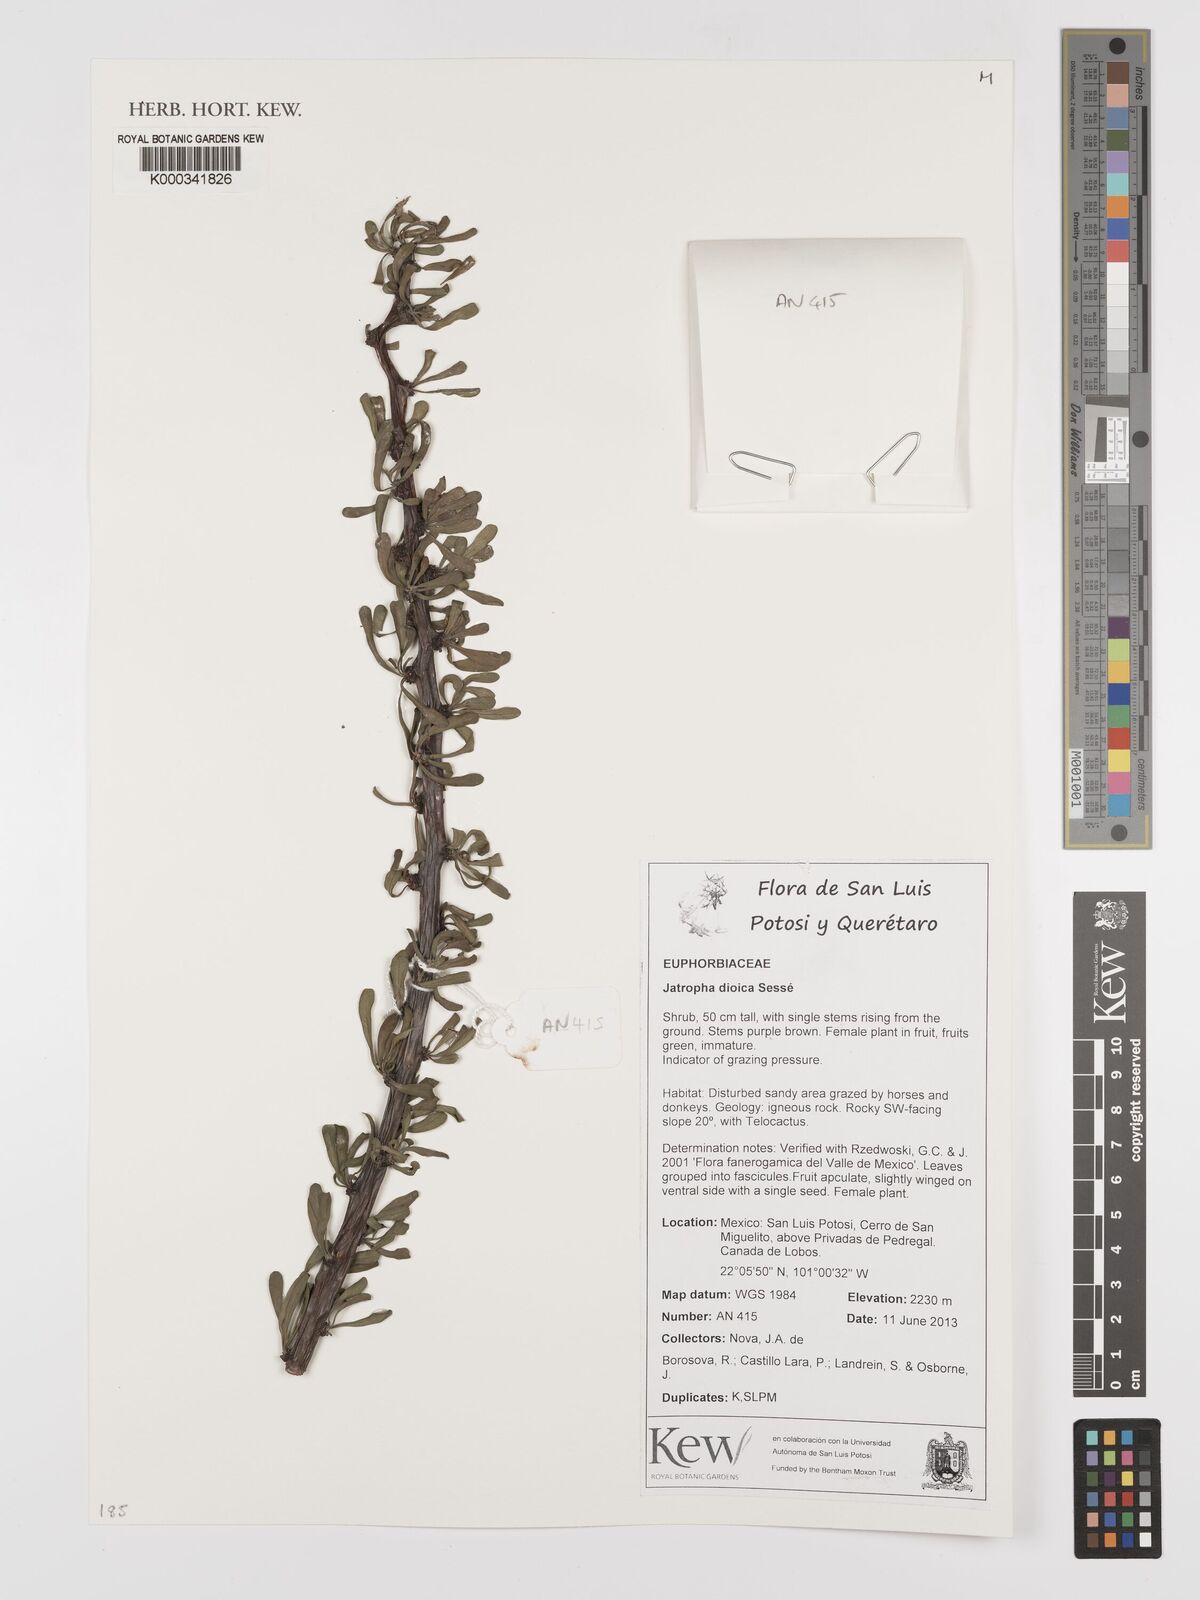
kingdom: Plantae
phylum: Tracheophyta
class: Magnoliopsida
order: Malpighiales
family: Euphorbiaceae
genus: Jatropha
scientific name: Jatropha dioica
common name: Leatherstem
